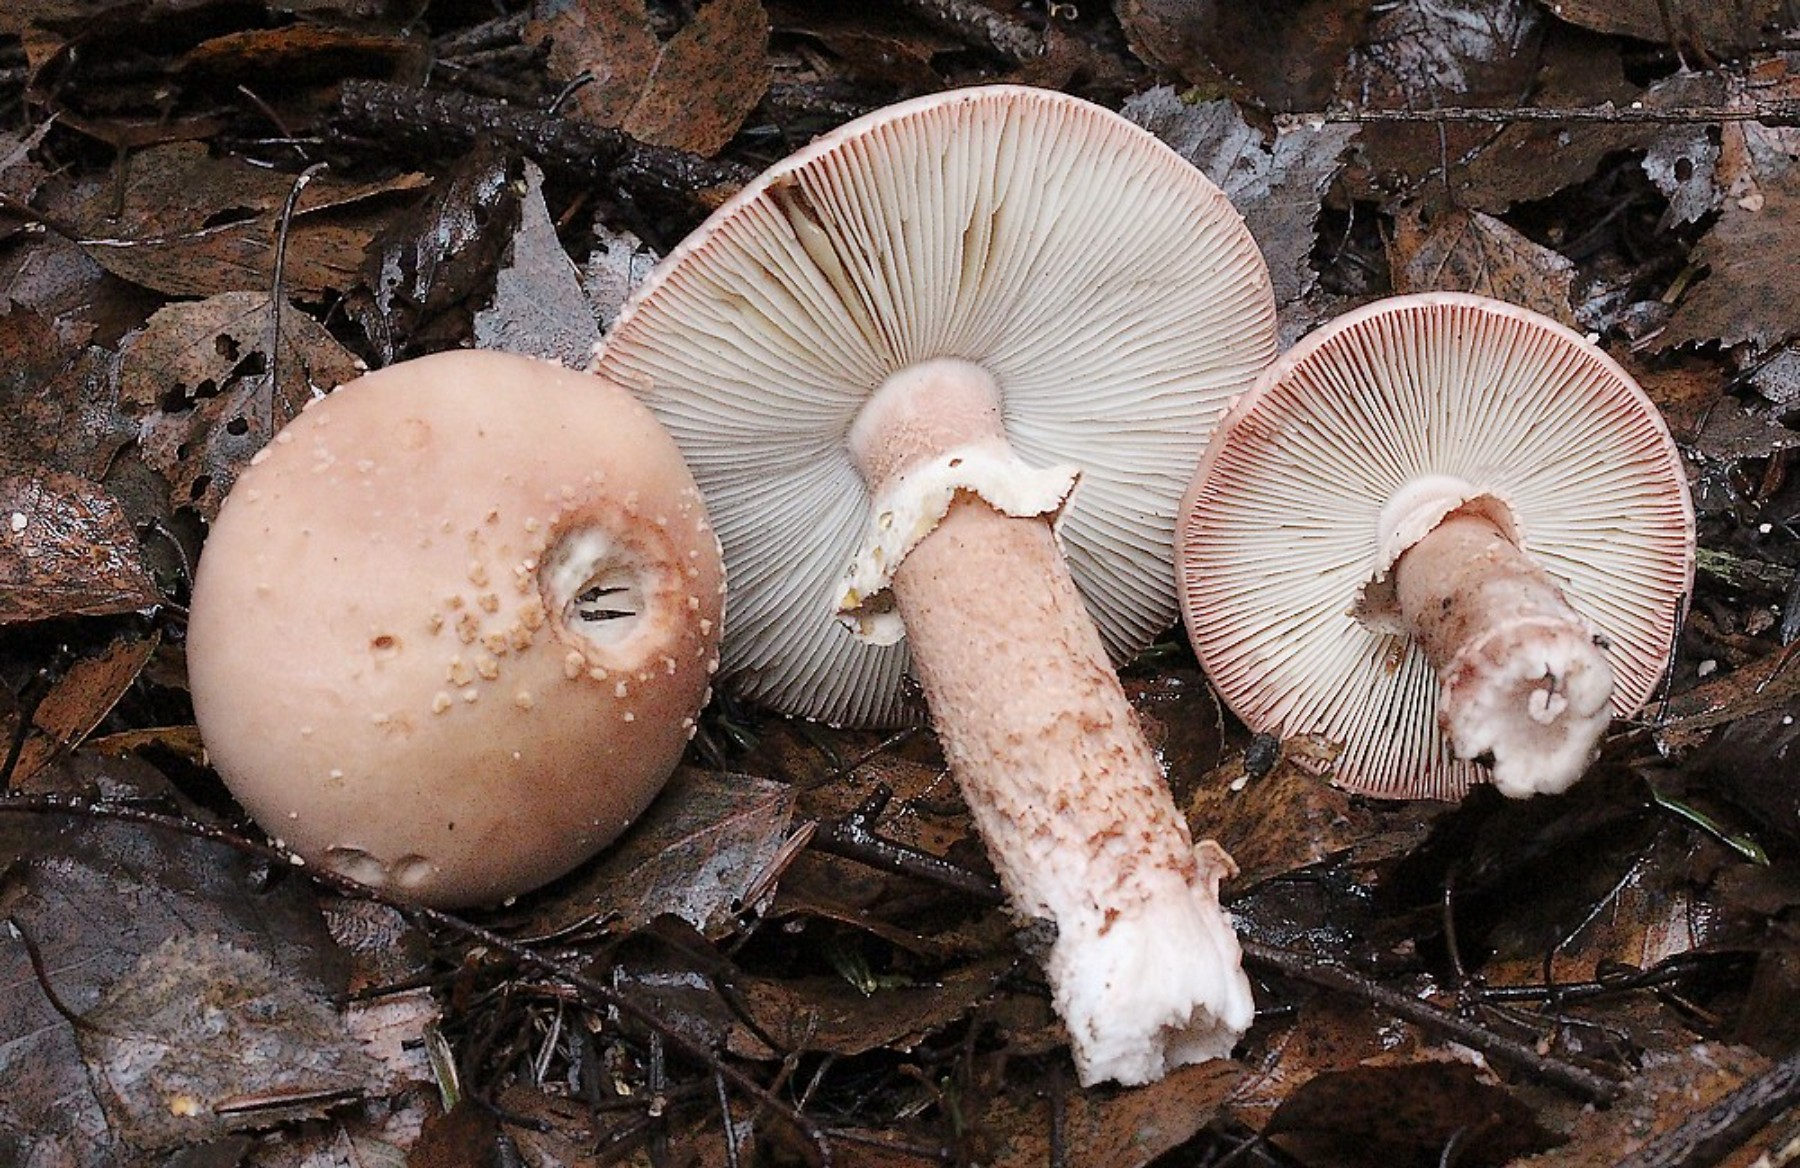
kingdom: Fungi
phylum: Basidiomycota
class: Agaricomycetes
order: Agaricales
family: Amanitaceae
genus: Amanita
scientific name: Amanita rubescens
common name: rødmende fluesvamp
